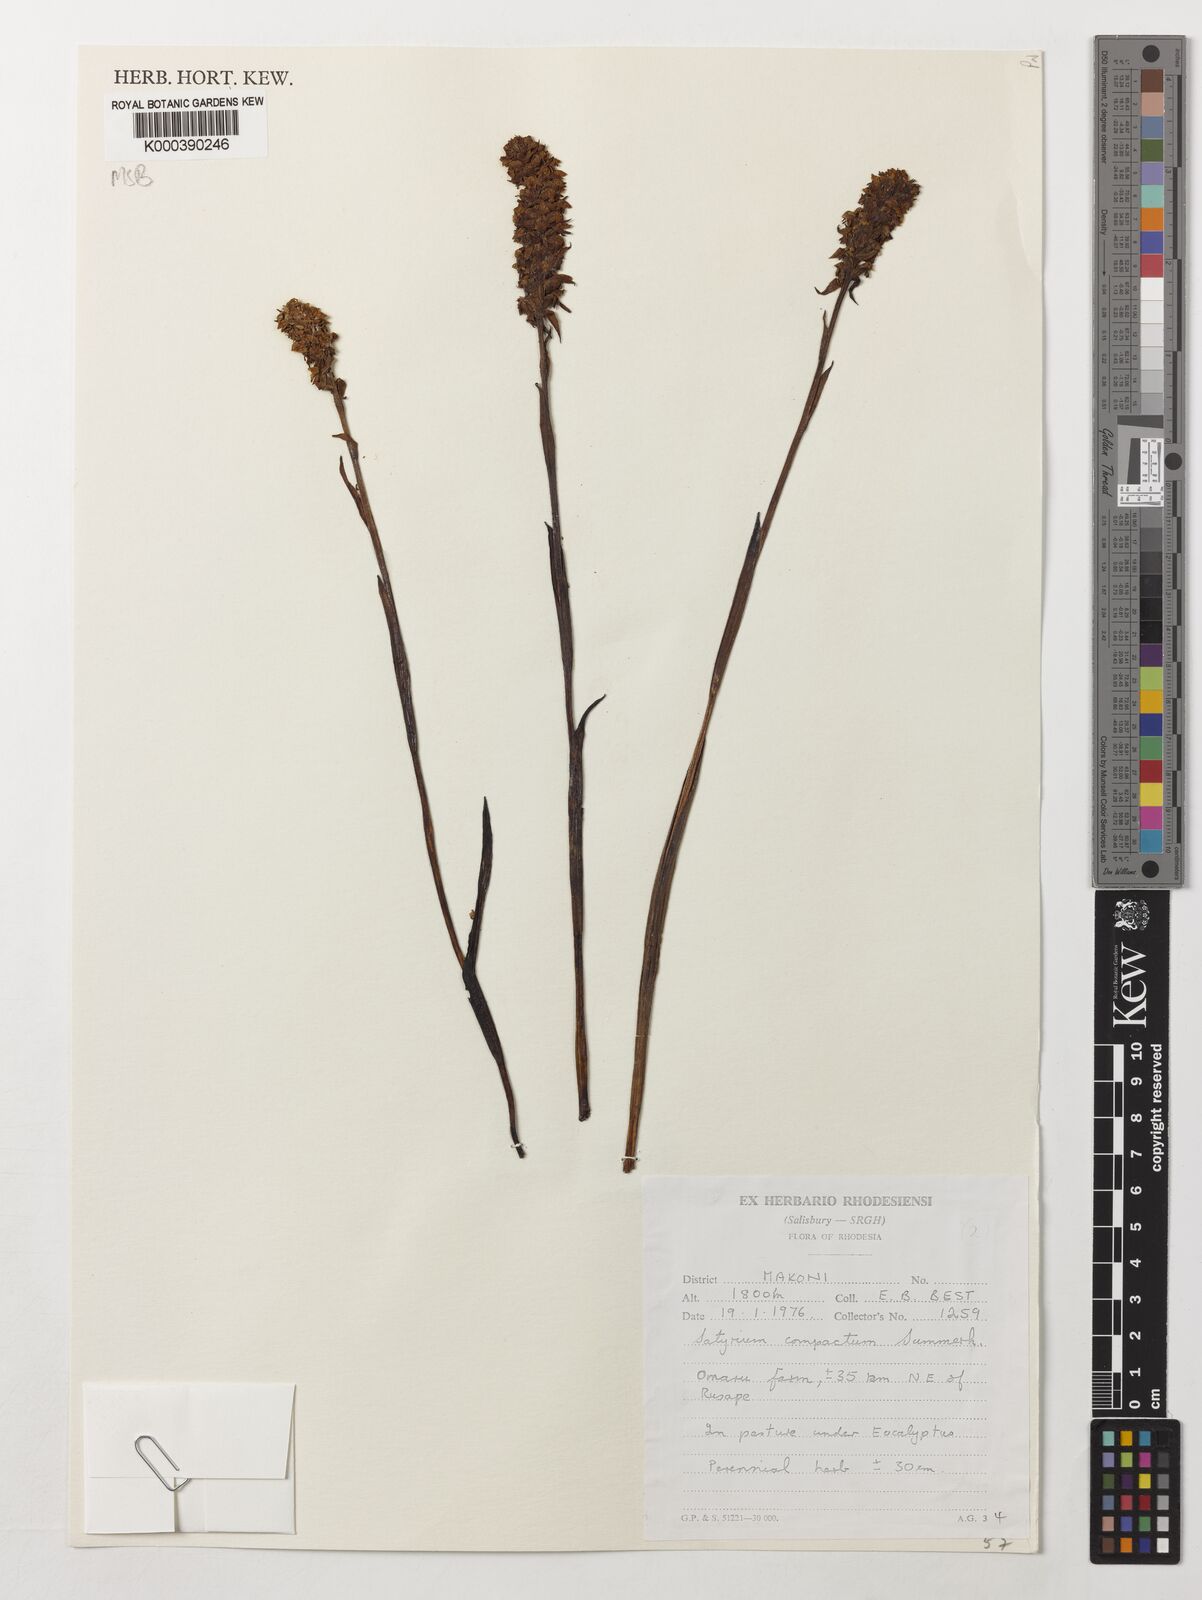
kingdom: Plantae
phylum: Tracheophyta
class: Liliopsida
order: Asparagales
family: Orchidaceae
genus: Satyrium
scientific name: Satyrium compactum
